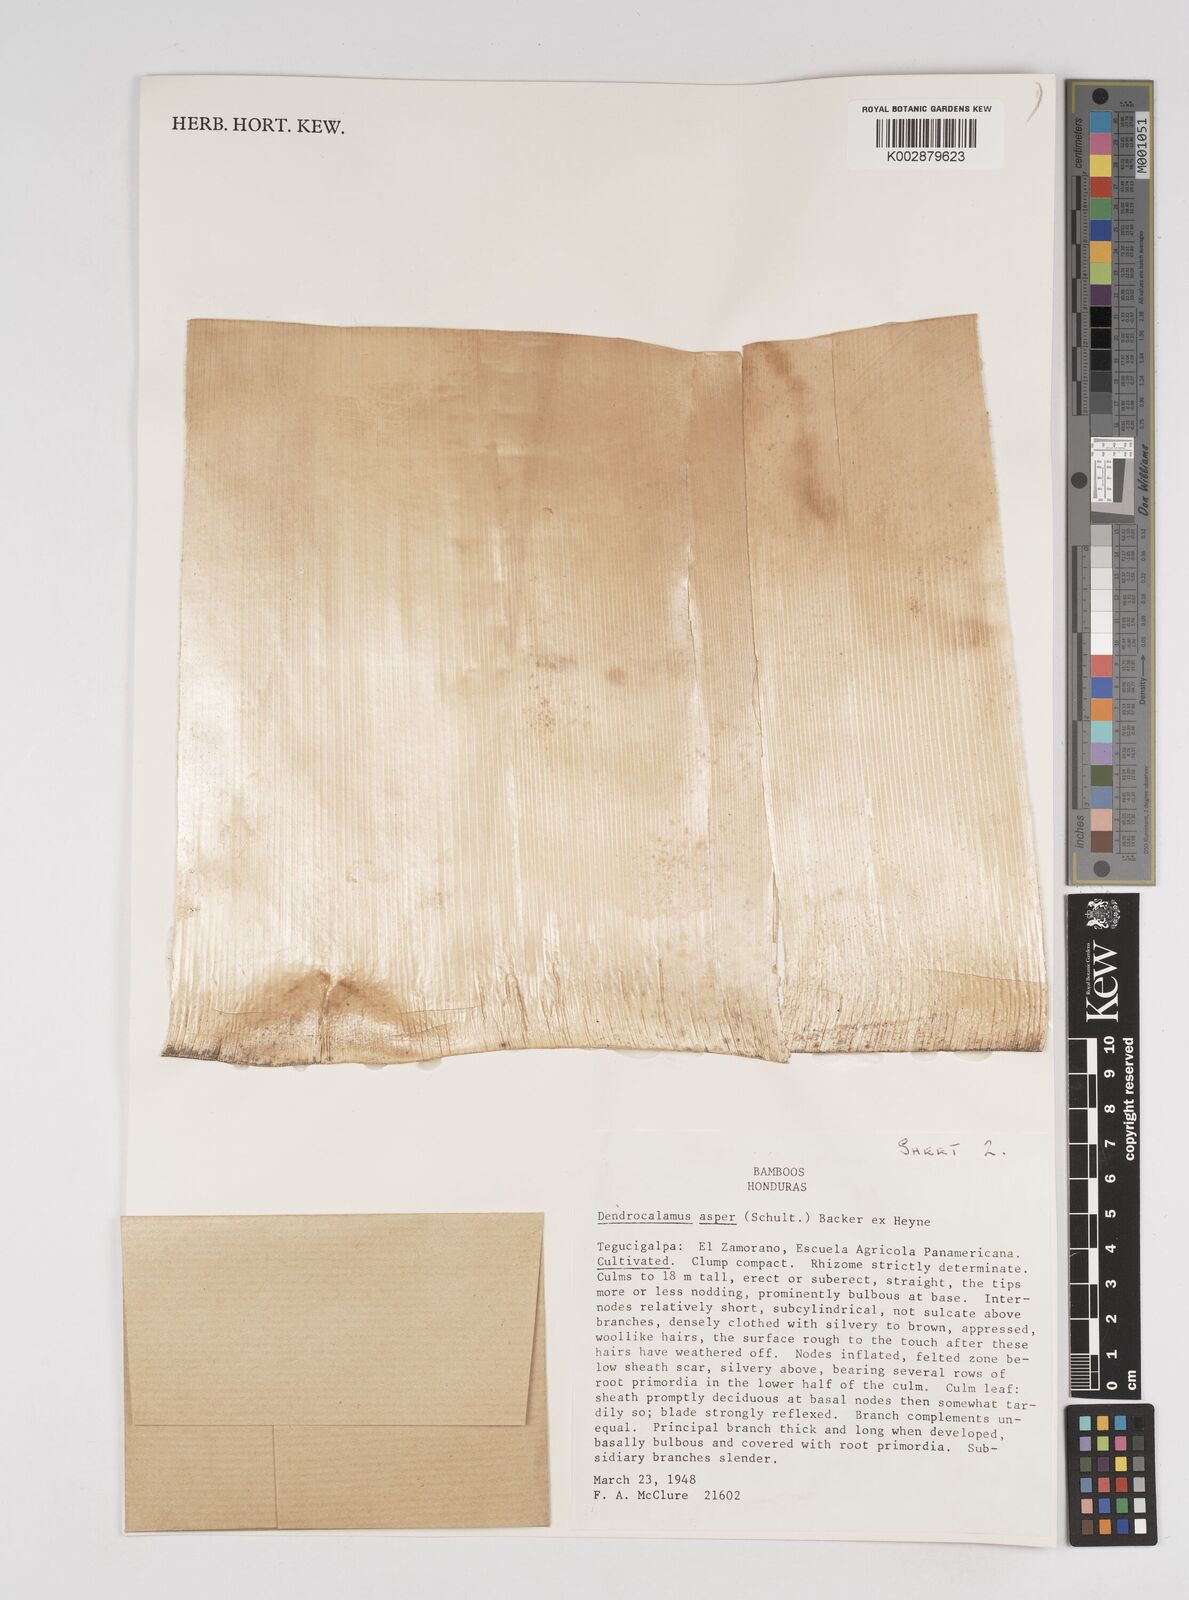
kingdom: Plantae
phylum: Tracheophyta
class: Liliopsida
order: Poales
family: Poaceae
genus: Dendrocalamus
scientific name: Dendrocalamus asper
